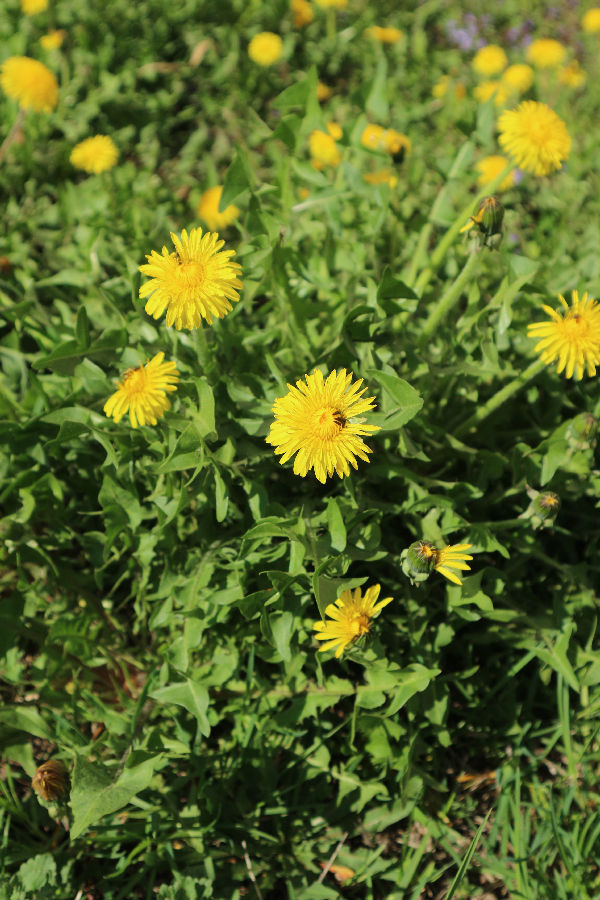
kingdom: Plantae
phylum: Tracheophyta
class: Magnoliopsida
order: Asterales
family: Asteraceae
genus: Taraxacum
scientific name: Taraxacum officinale
